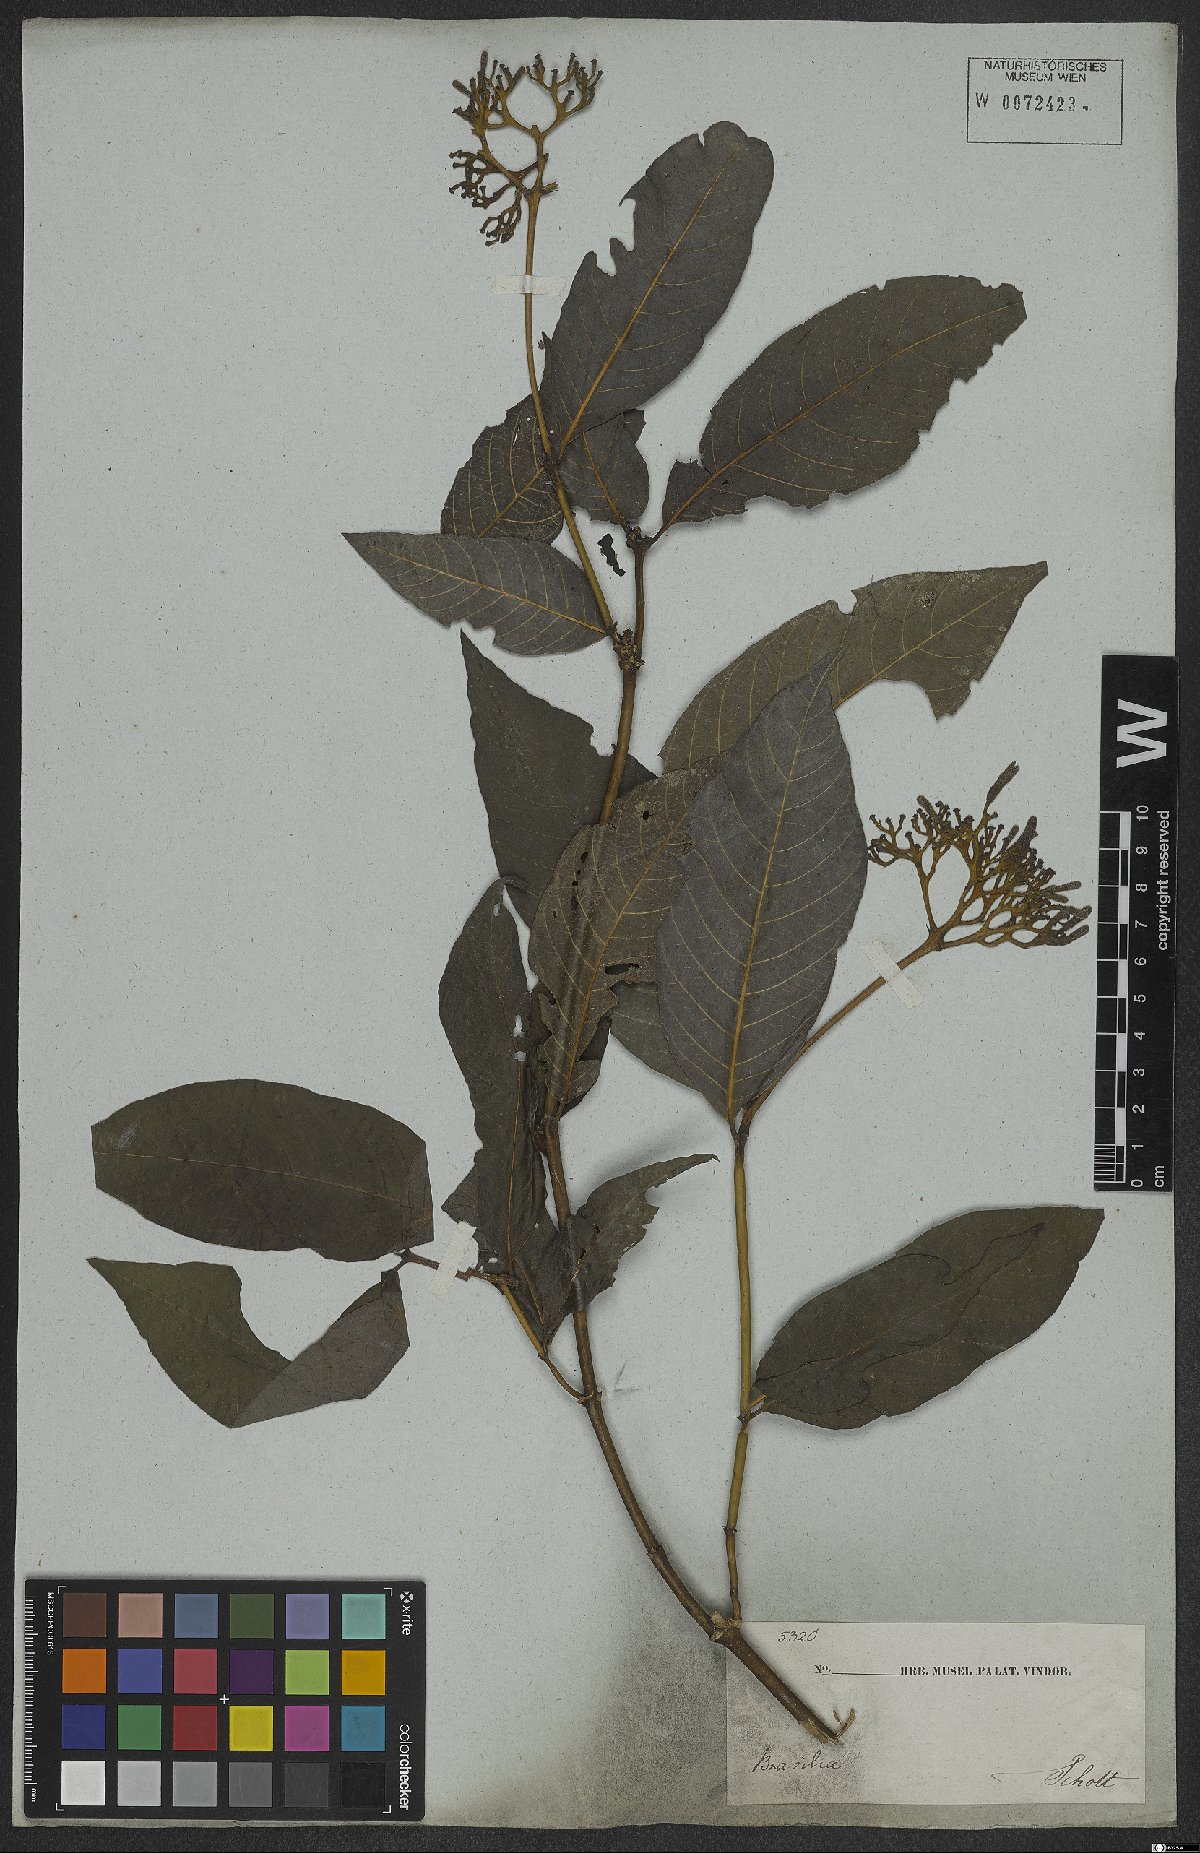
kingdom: Plantae
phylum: Tracheophyta
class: Magnoliopsida
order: Gentianales
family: Rubiaceae
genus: Palicourea
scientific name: Palicourea marcgravii
